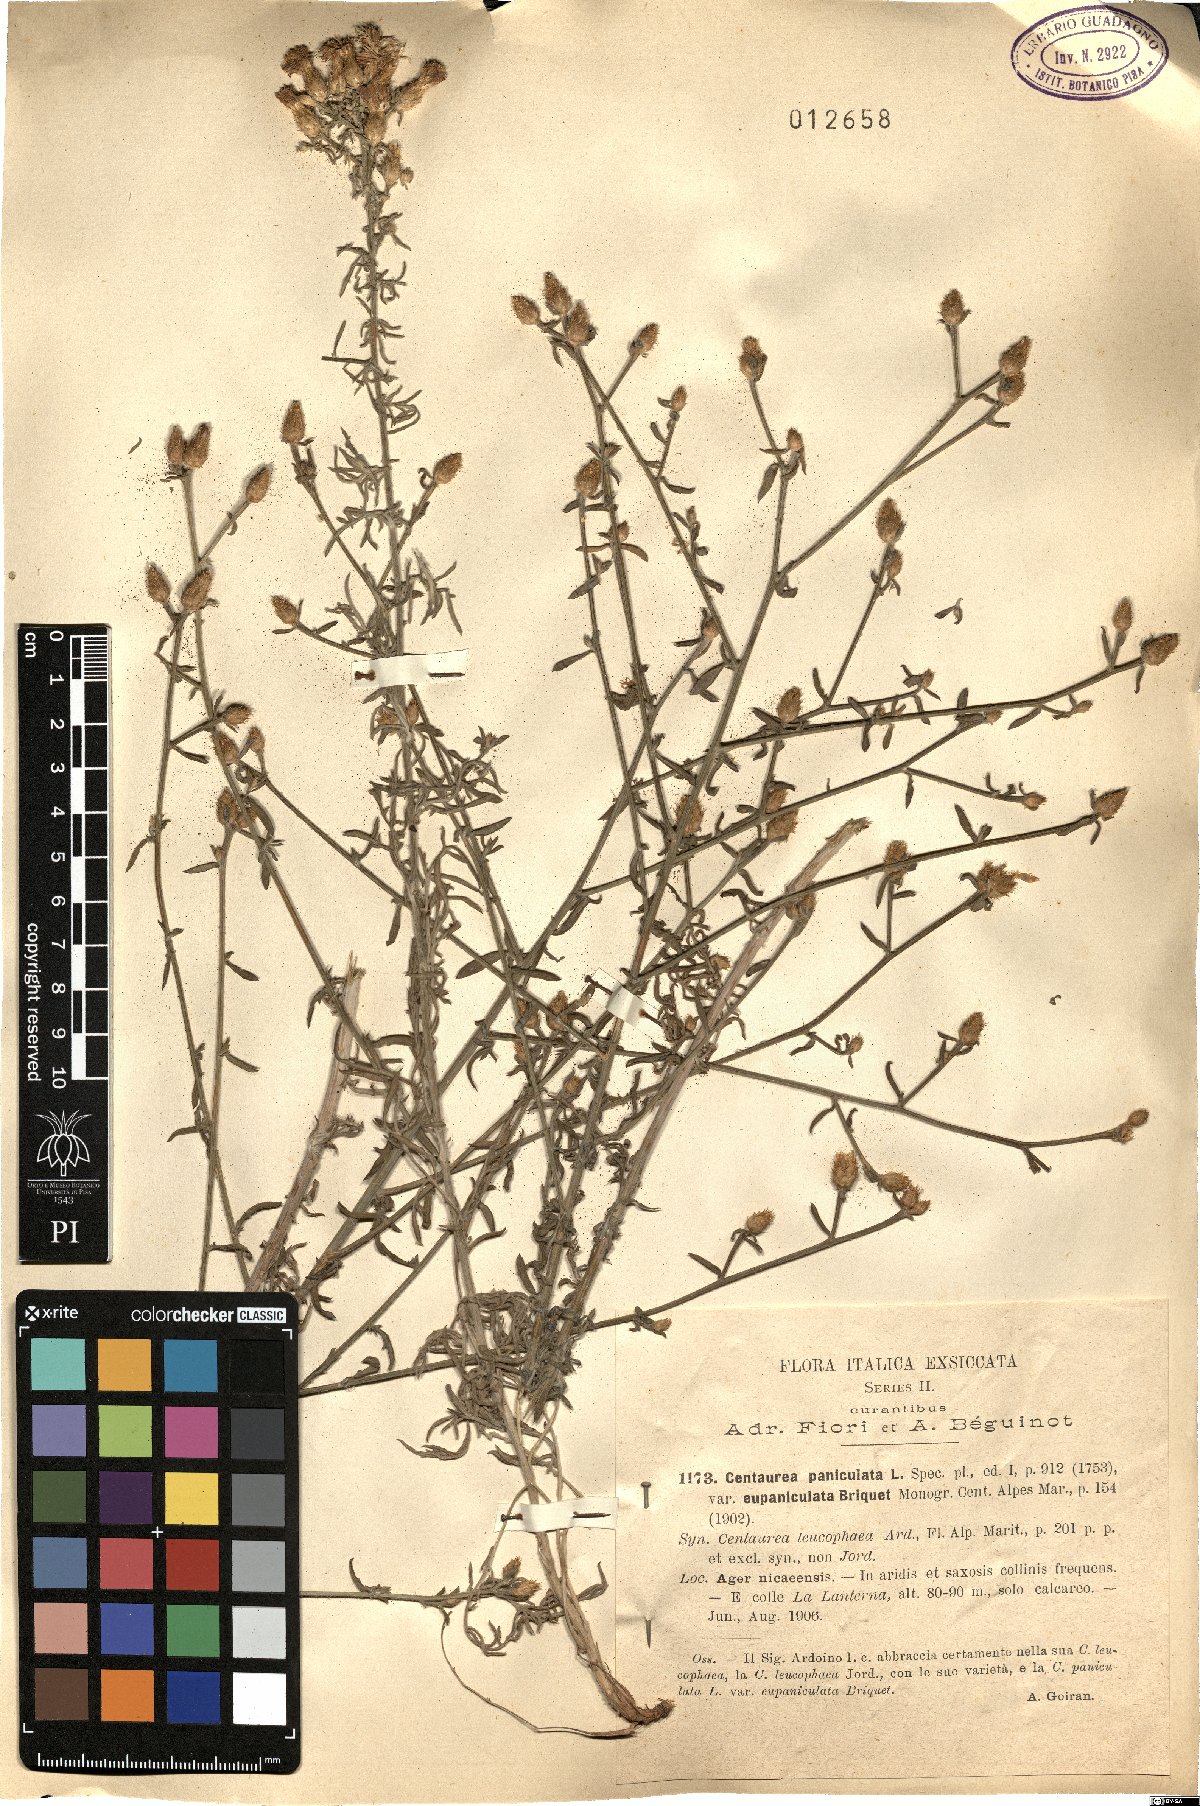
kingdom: Plantae
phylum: Tracheophyta
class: Magnoliopsida
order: Asterales
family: Asteraceae
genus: Centaurea
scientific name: Centaurea paniculata
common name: Jersey knapweed
